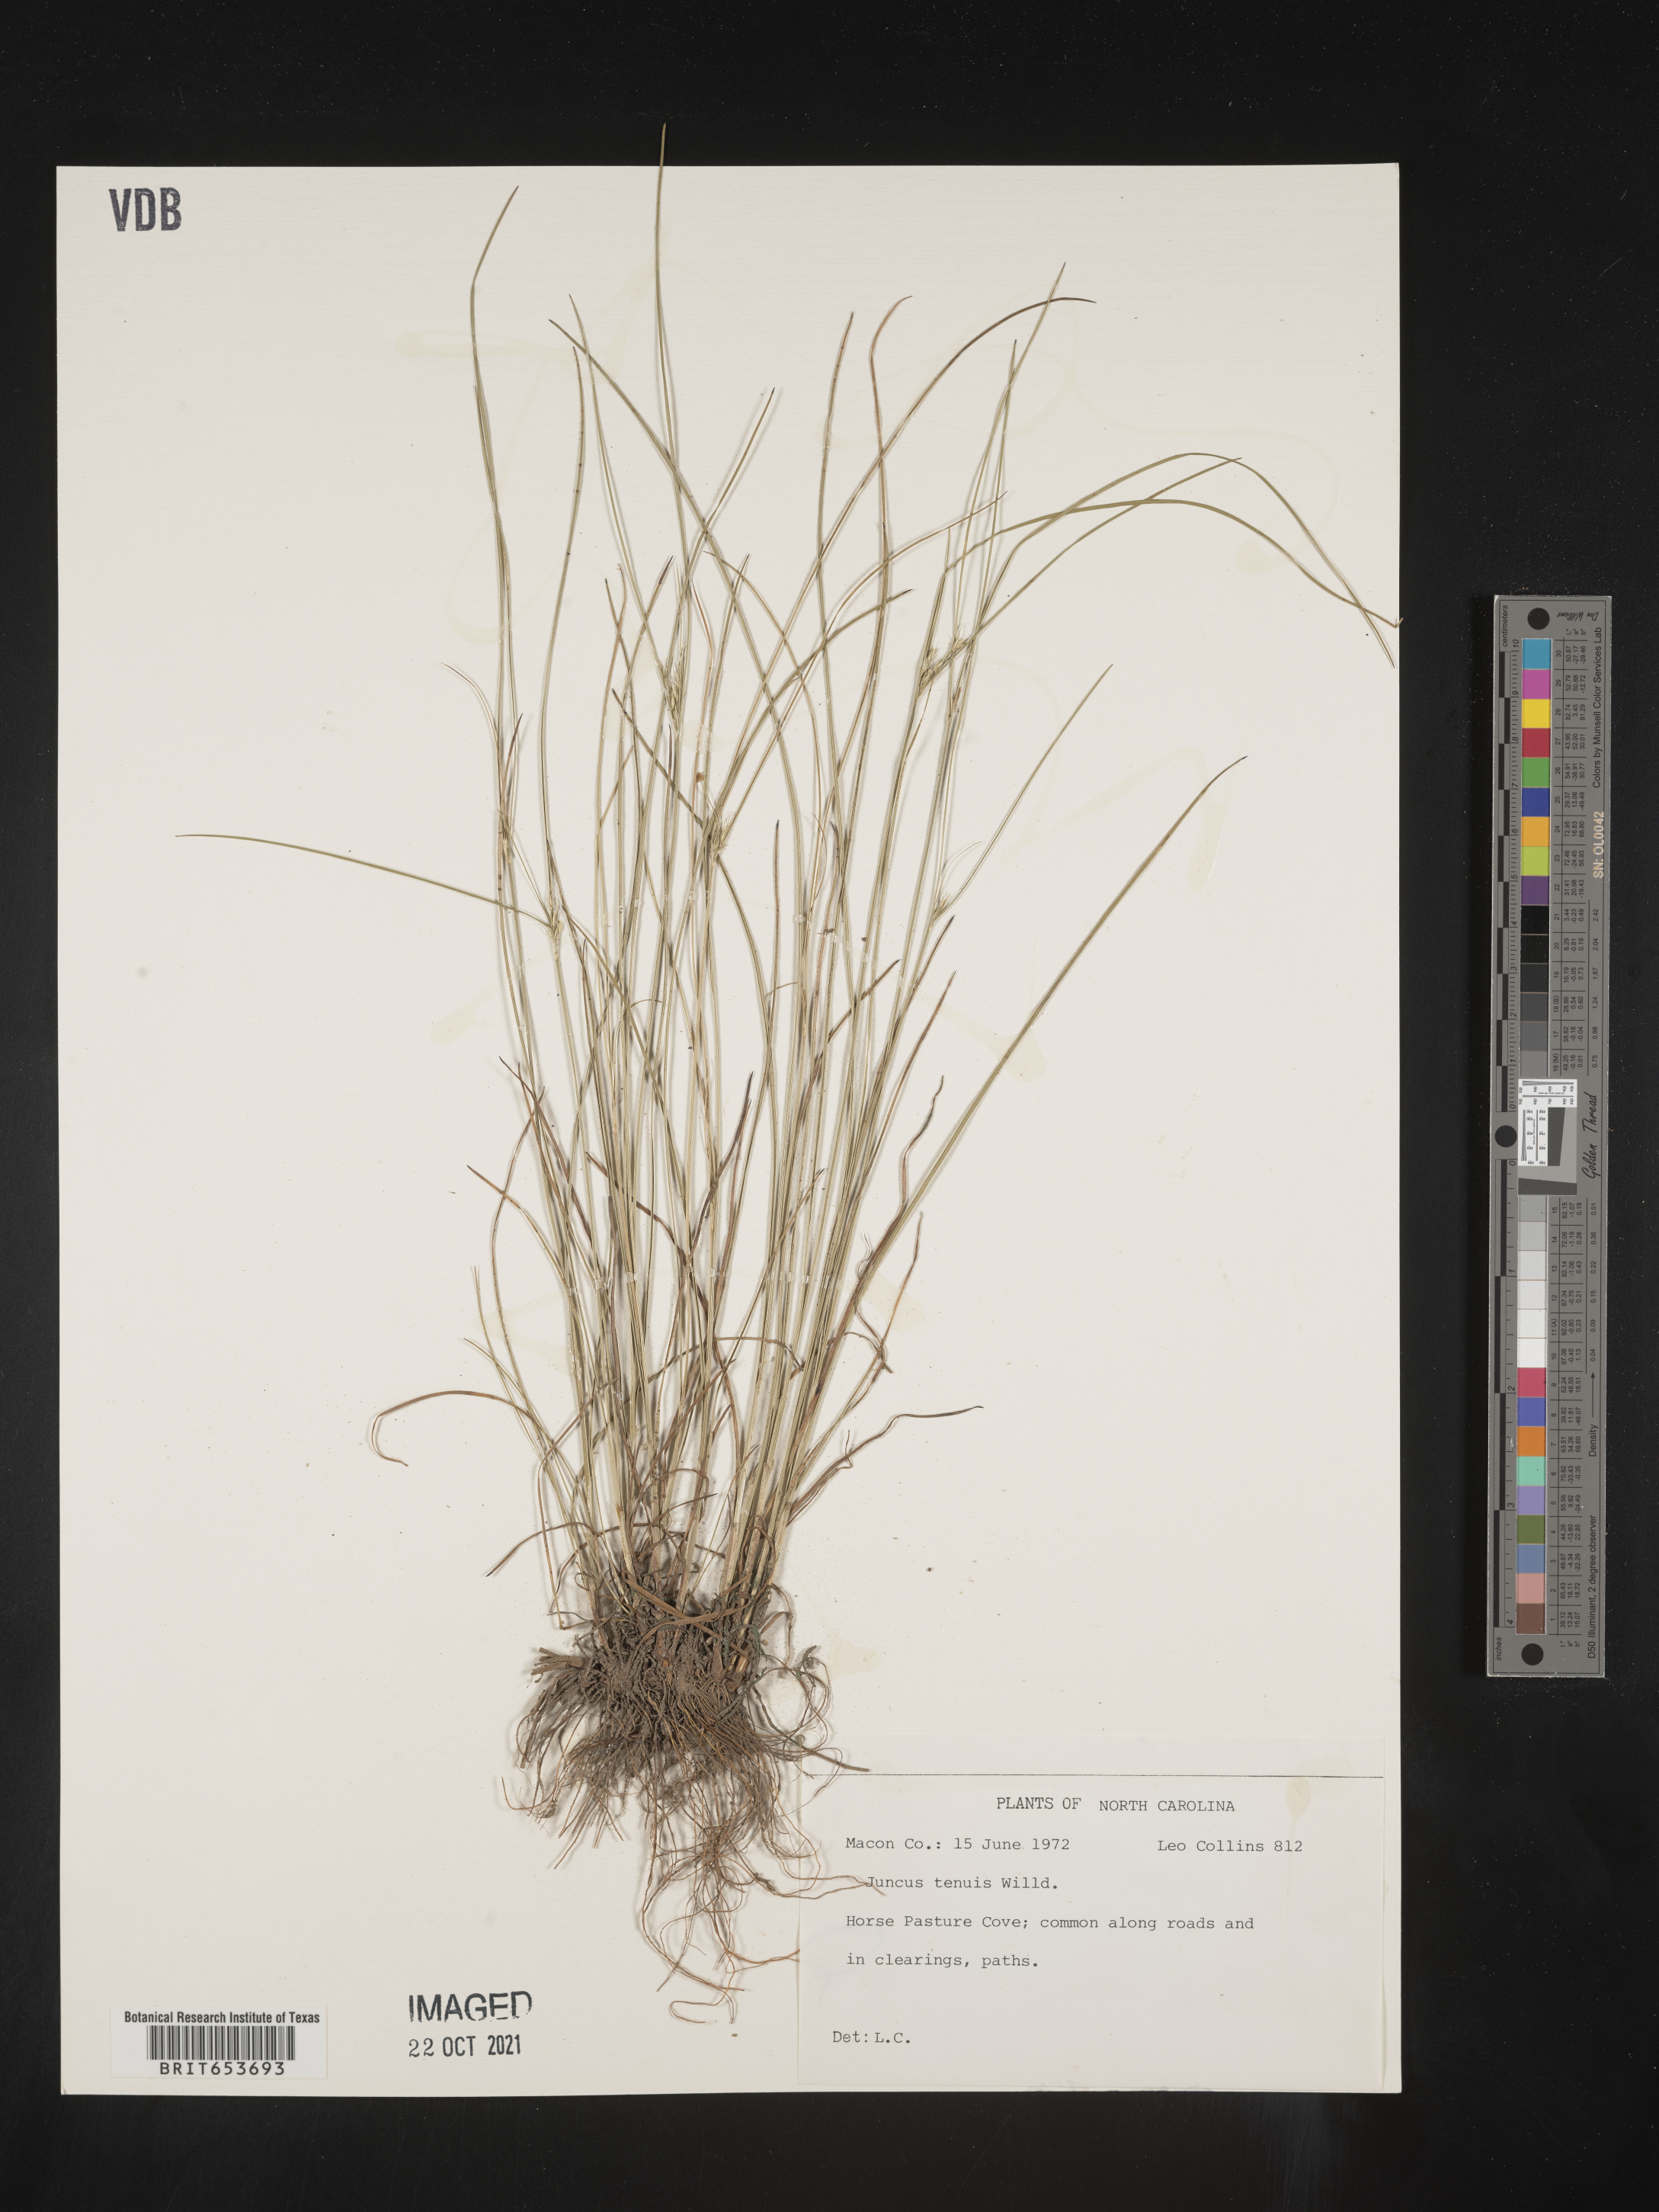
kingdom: Plantae
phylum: Tracheophyta
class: Liliopsida
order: Poales
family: Juncaceae
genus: Juncus
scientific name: Juncus tenuis
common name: Slender rush
